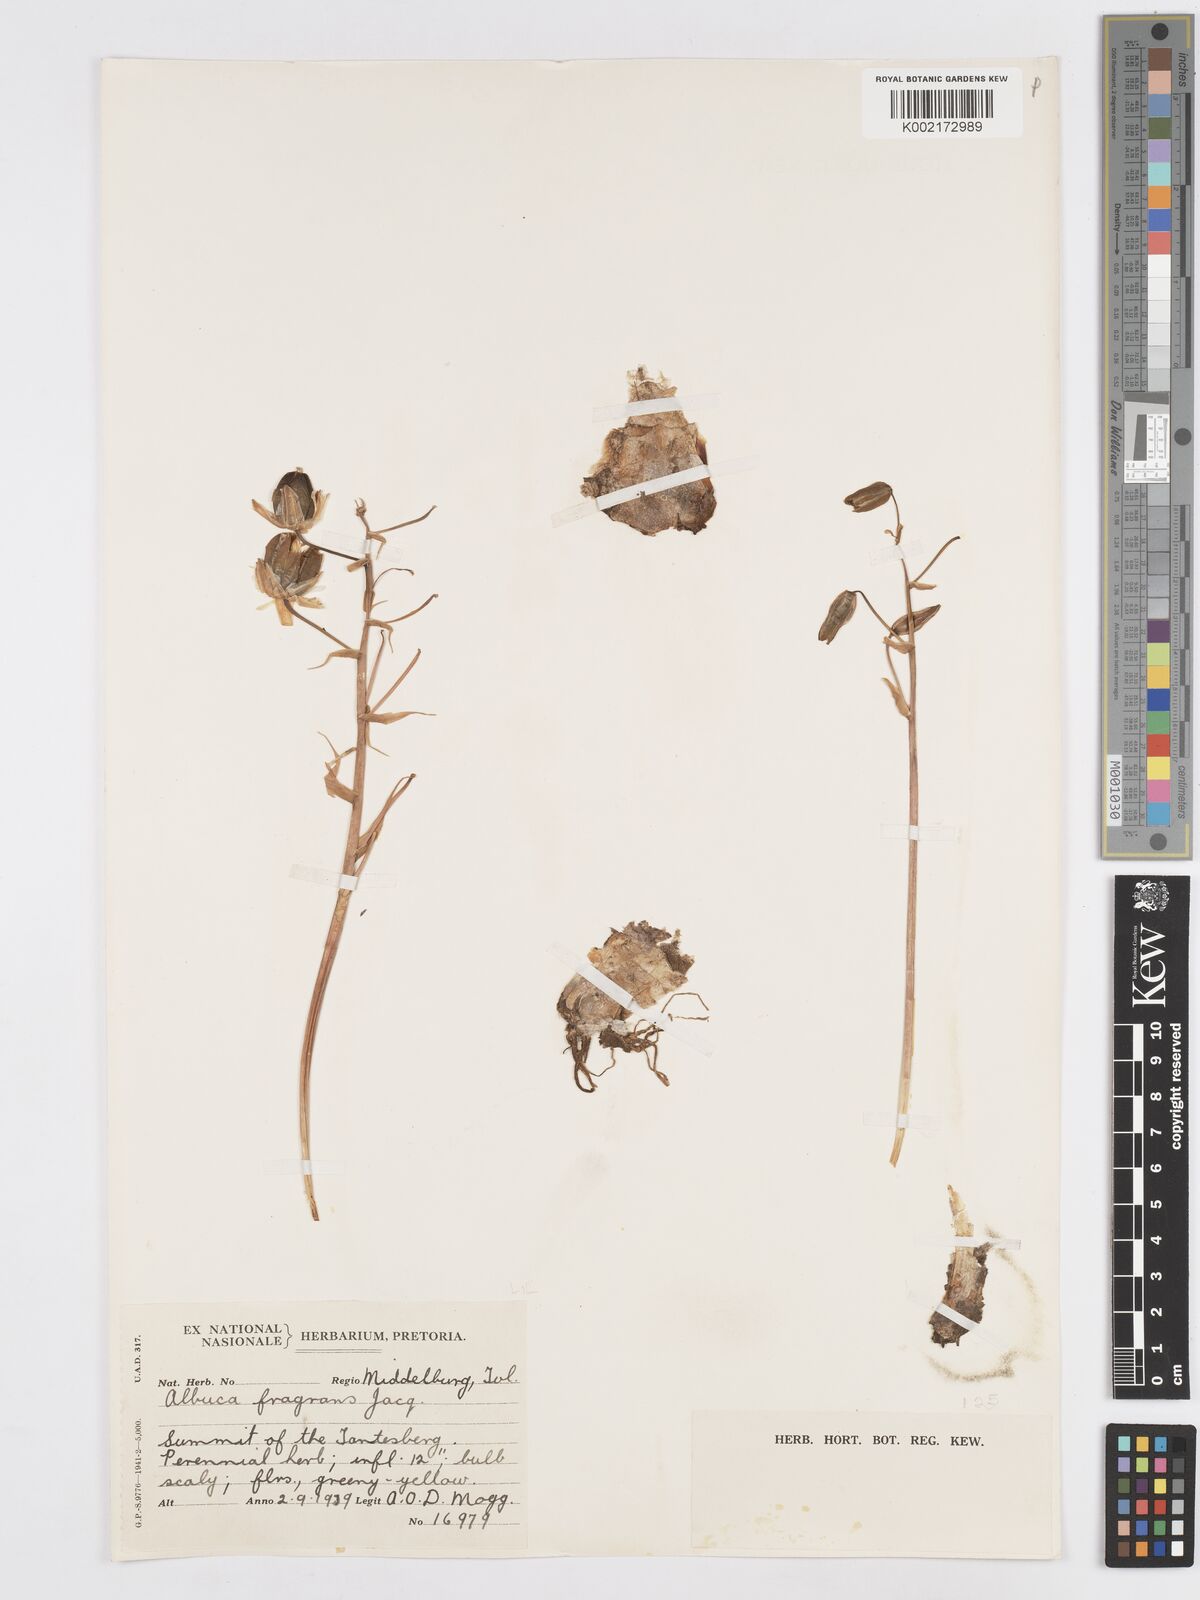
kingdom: Plantae
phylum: Tracheophyta
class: Liliopsida
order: Asparagales
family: Asparagaceae
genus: Albuca
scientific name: Albuca fragrans
